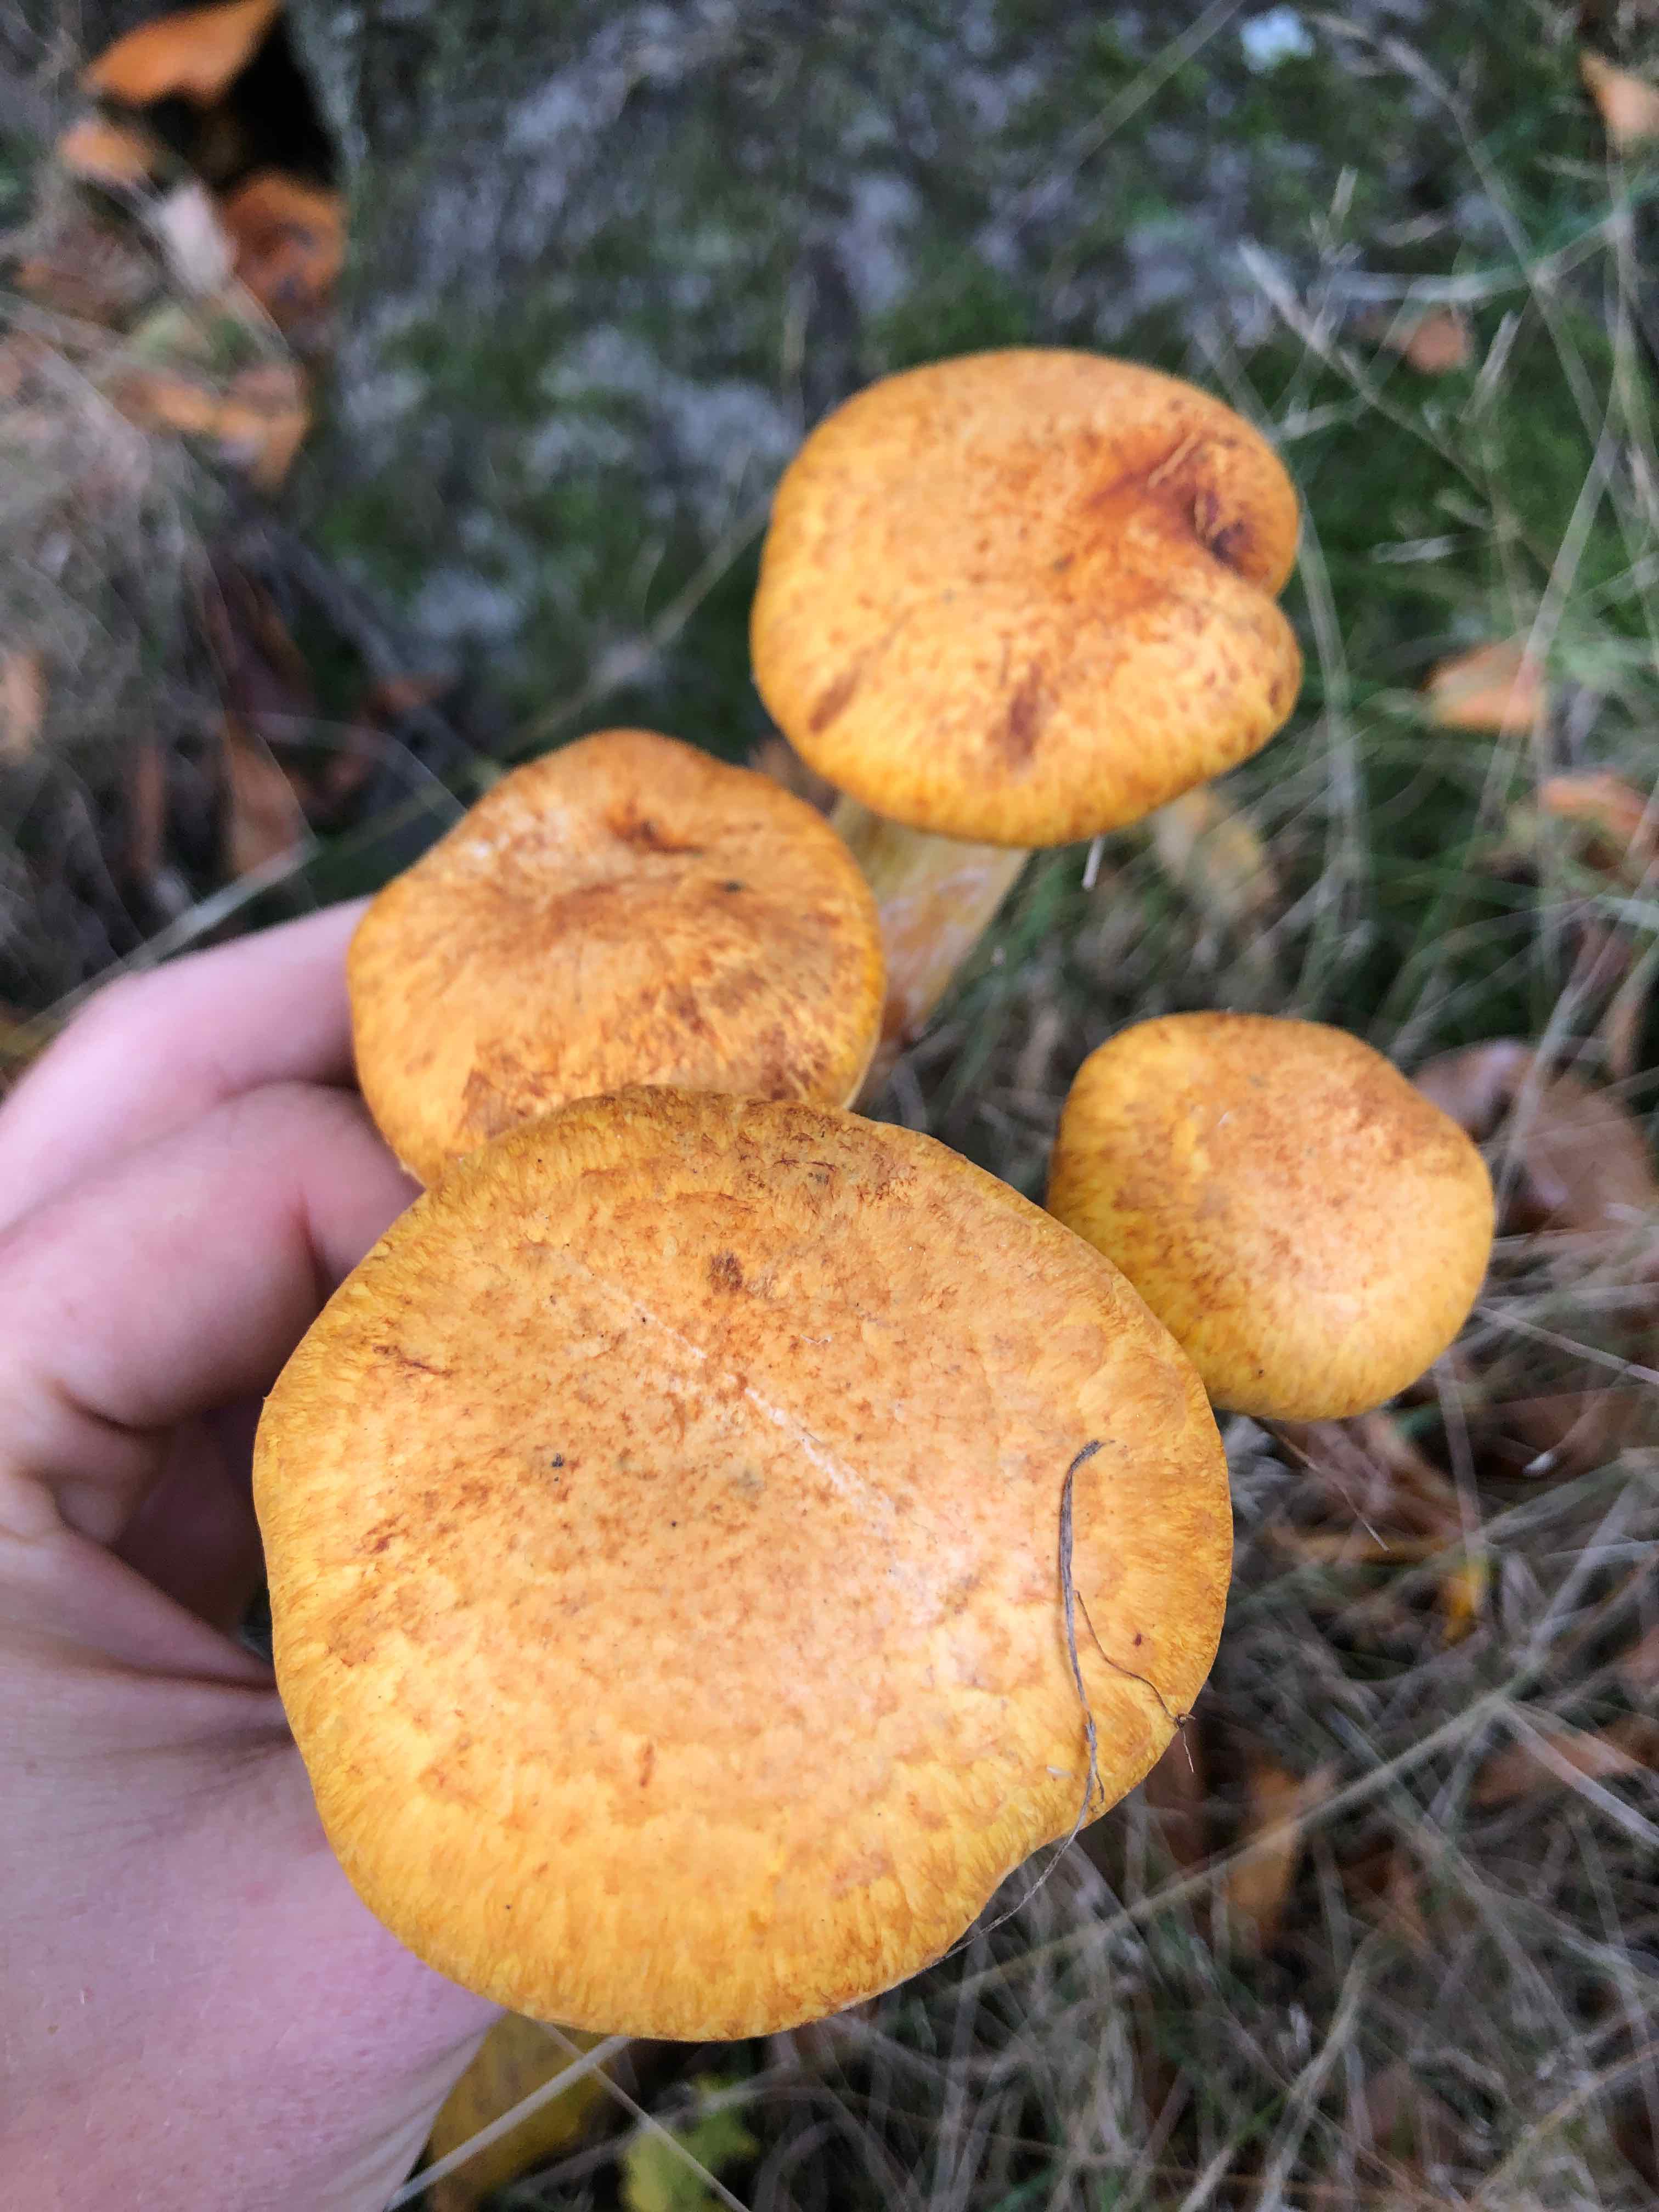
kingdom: Fungi
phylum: Basidiomycota
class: Agaricomycetes
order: Agaricales
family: Hymenogastraceae
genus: Gymnopilus
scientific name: Gymnopilus spectabilis
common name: fibret flammehat
